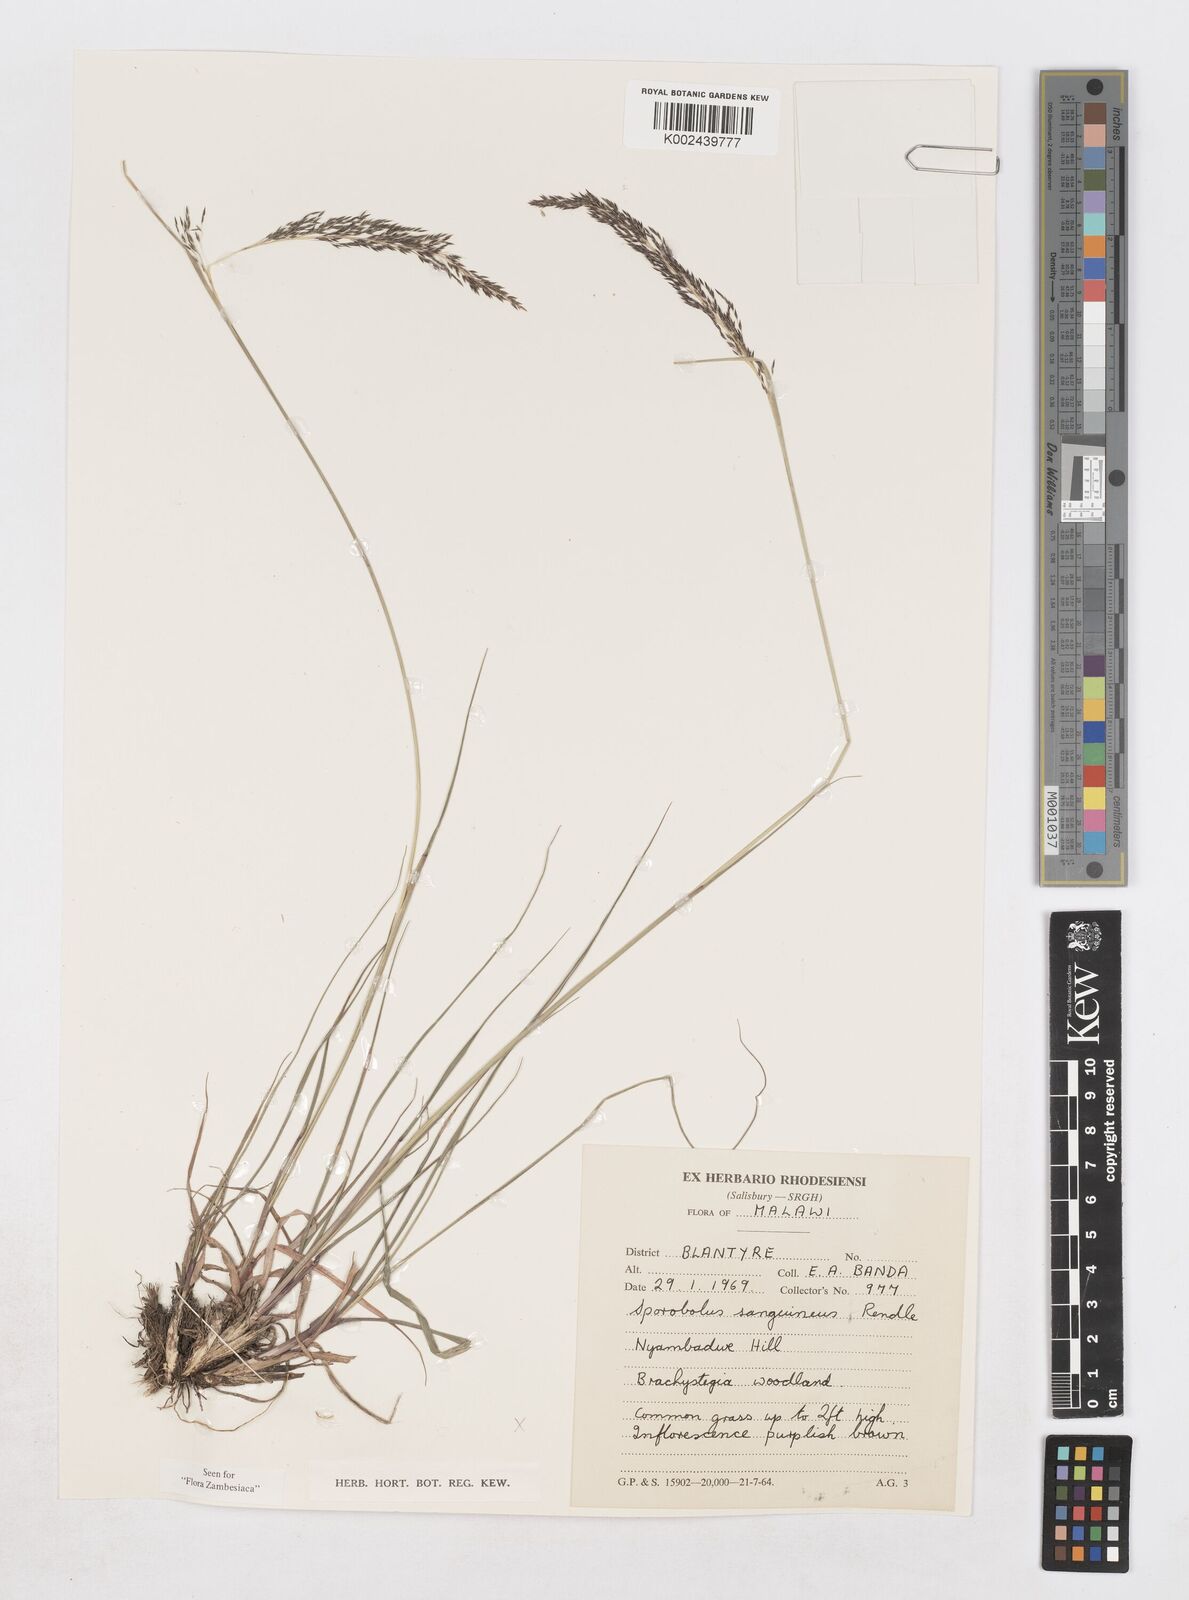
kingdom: Plantae
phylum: Tracheophyta
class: Liliopsida
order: Poales
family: Poaceae
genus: Sporobolus
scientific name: Sporobolus sanguineus
